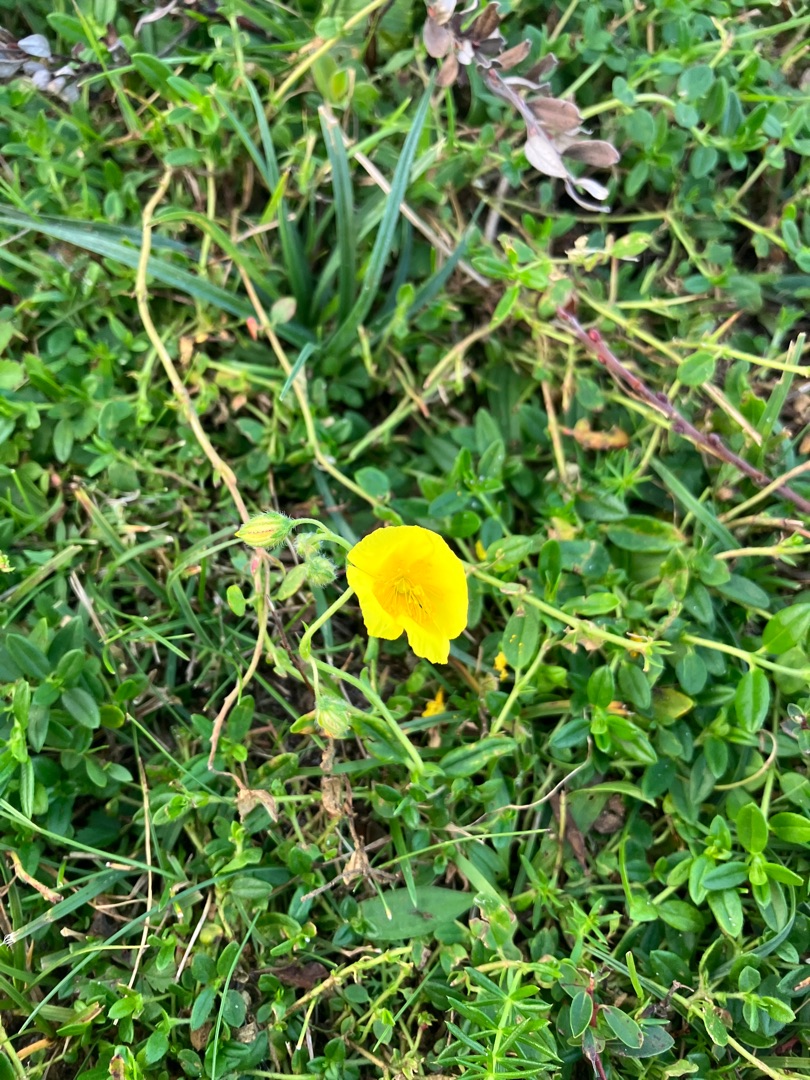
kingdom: Plantae
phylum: Tracheophyta
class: Magnoliopsida
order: Malvales
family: Cistaceae
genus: Helianthemum
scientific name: Helianthemum nummularium
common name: Soløje
